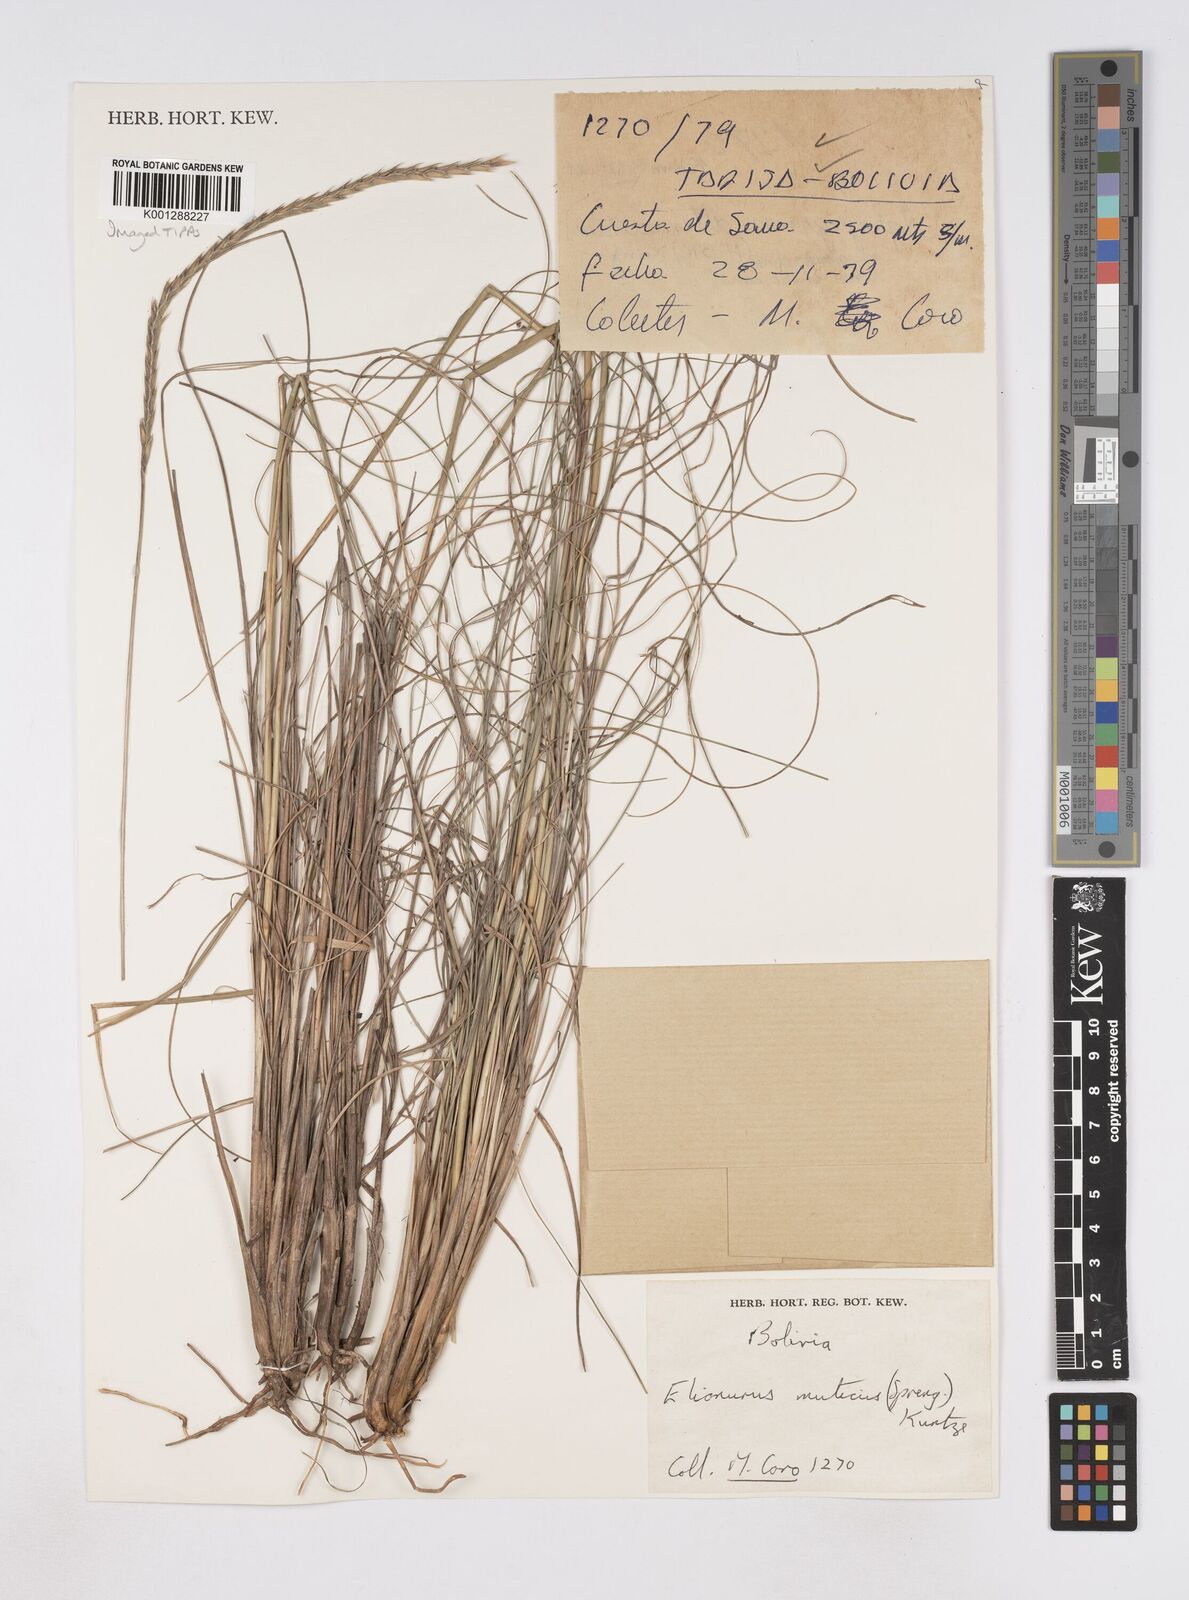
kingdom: Plantae
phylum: Tracheophyta
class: Liliopsida
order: Poales
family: Poaceae
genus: Elionurus
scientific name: Elionurus muticus
